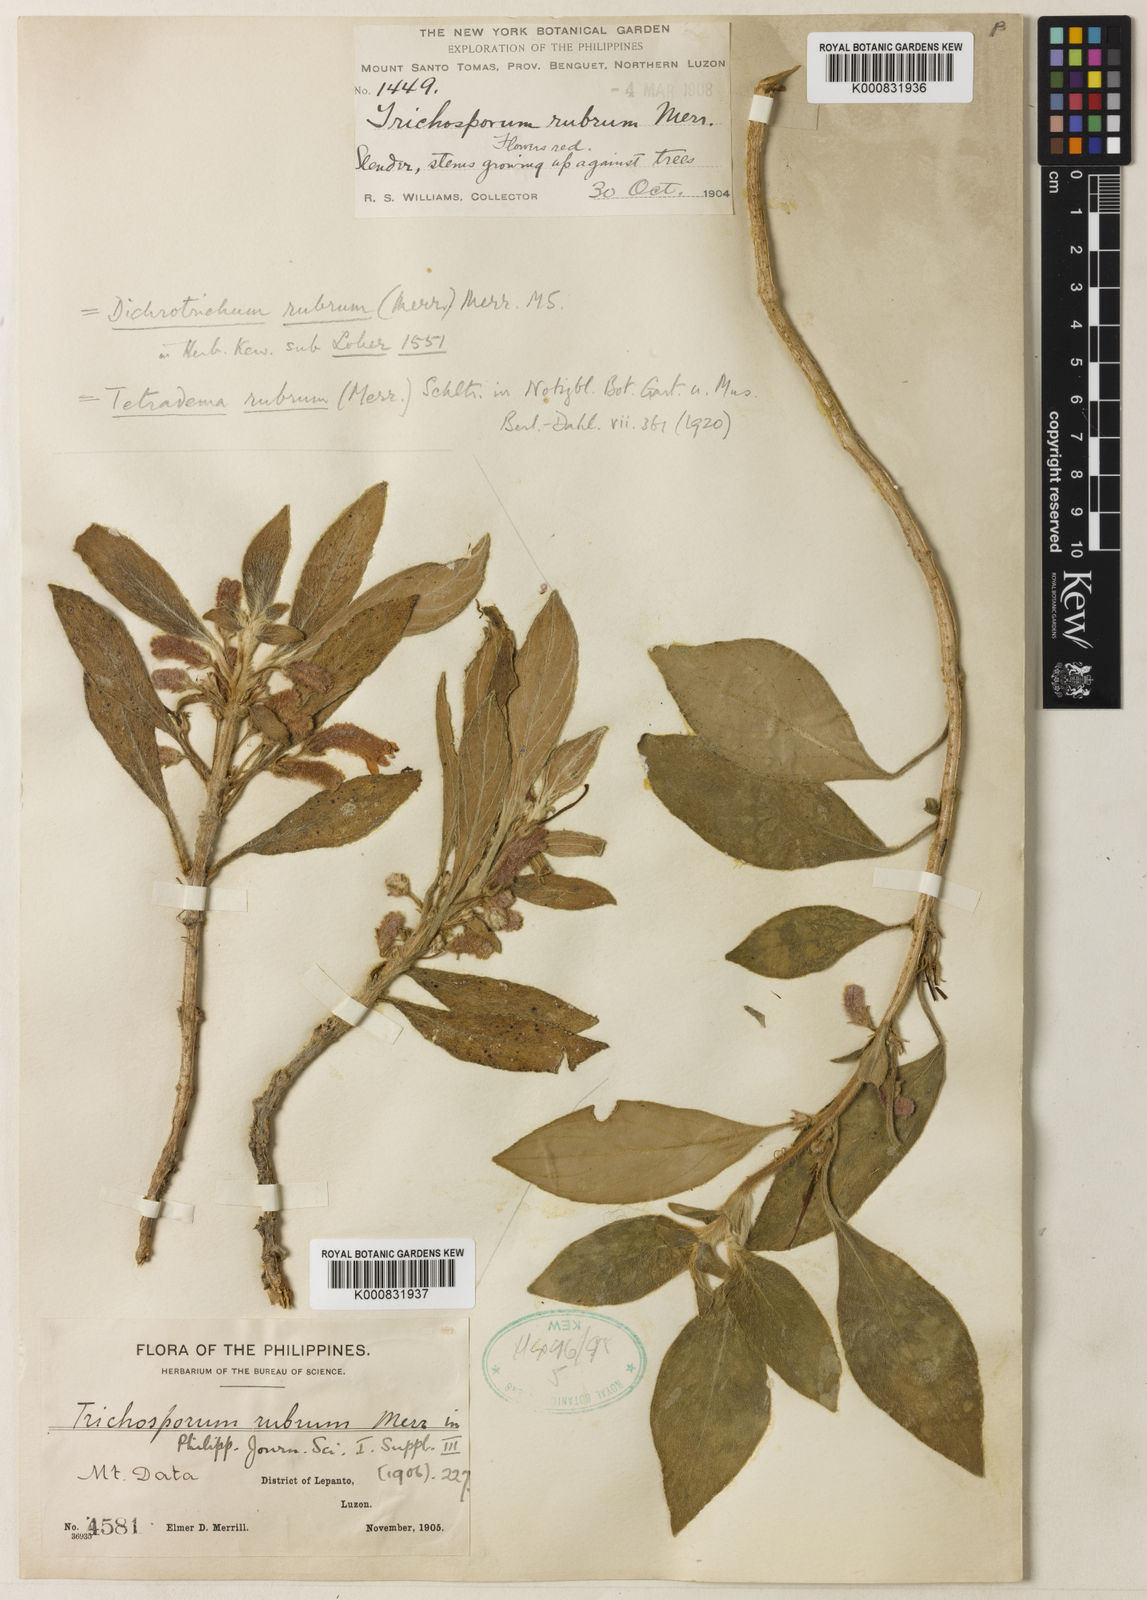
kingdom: Plantae
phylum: Tracheophyta
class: Magnoliopsida
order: Lamiales
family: Gesneriaceae
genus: Agalmyla
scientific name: Agalmyla rubra
